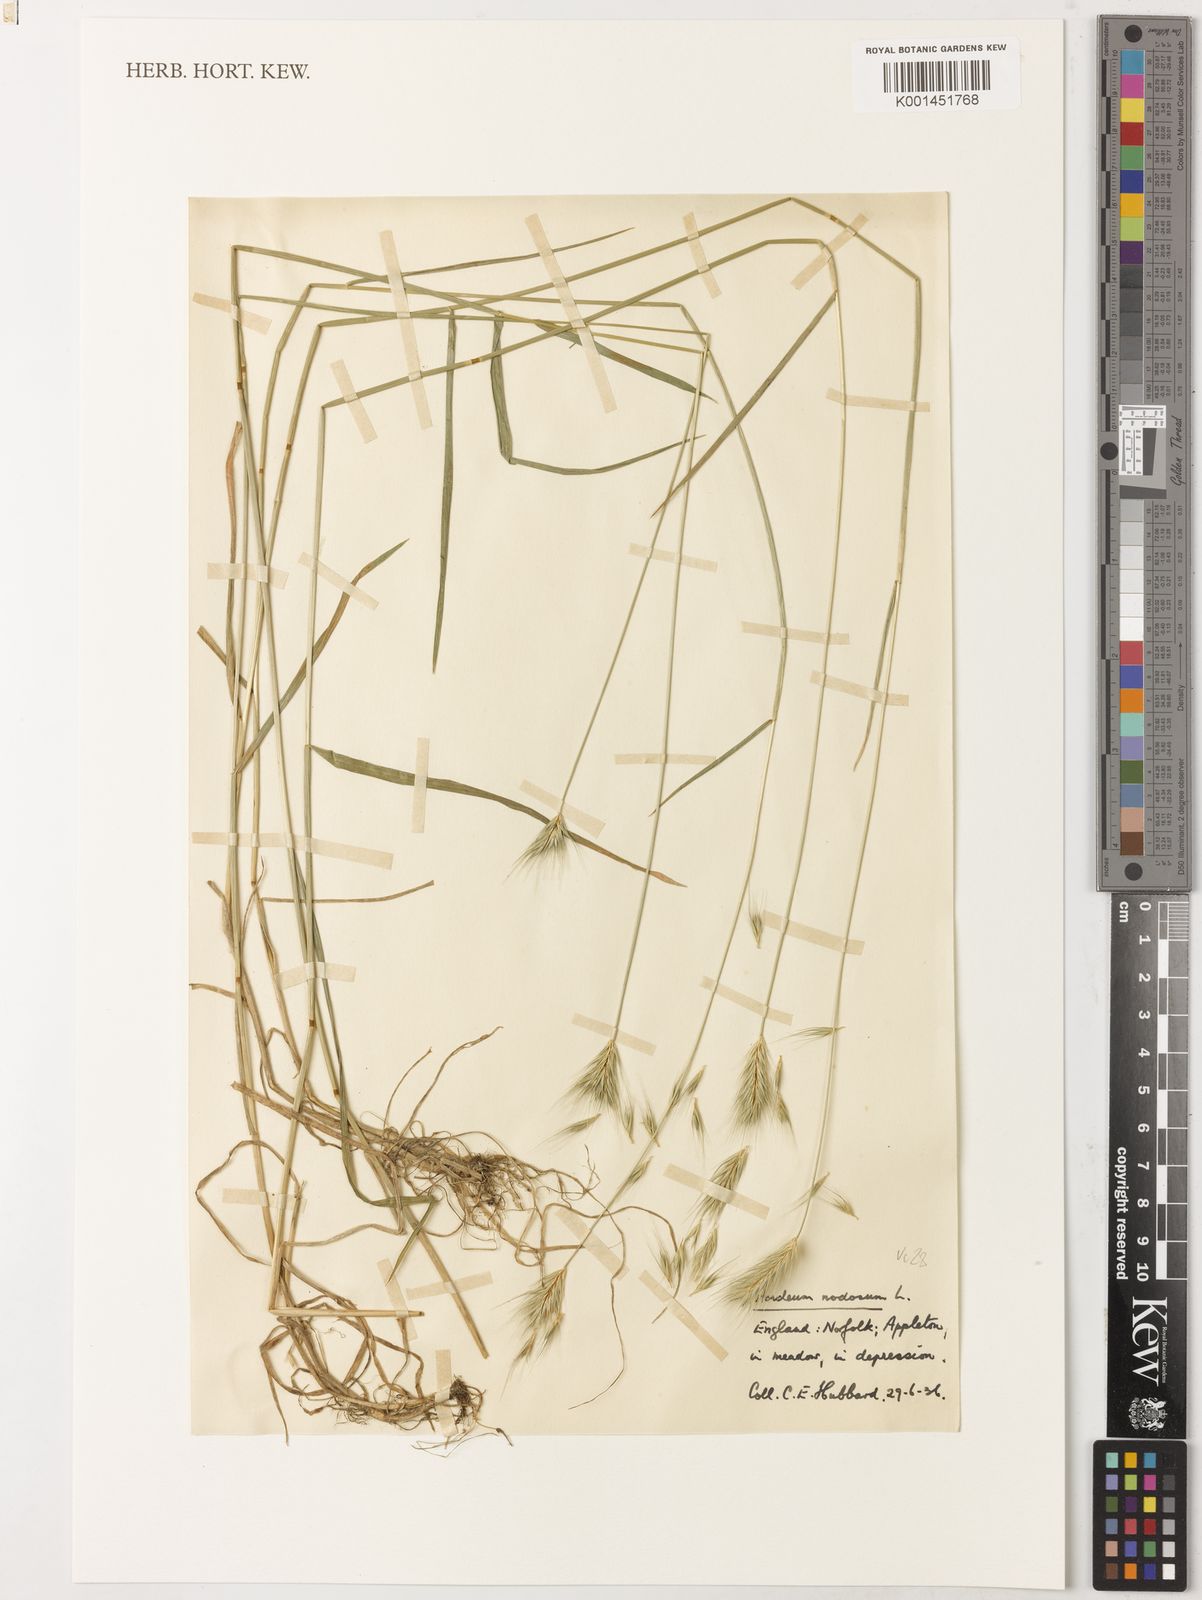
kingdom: Plantae
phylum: Tracheophyta
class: Liliopsida
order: Poales
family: Poaceae
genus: Hordeum
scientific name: Hordeum secalinum
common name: Meadow barley
